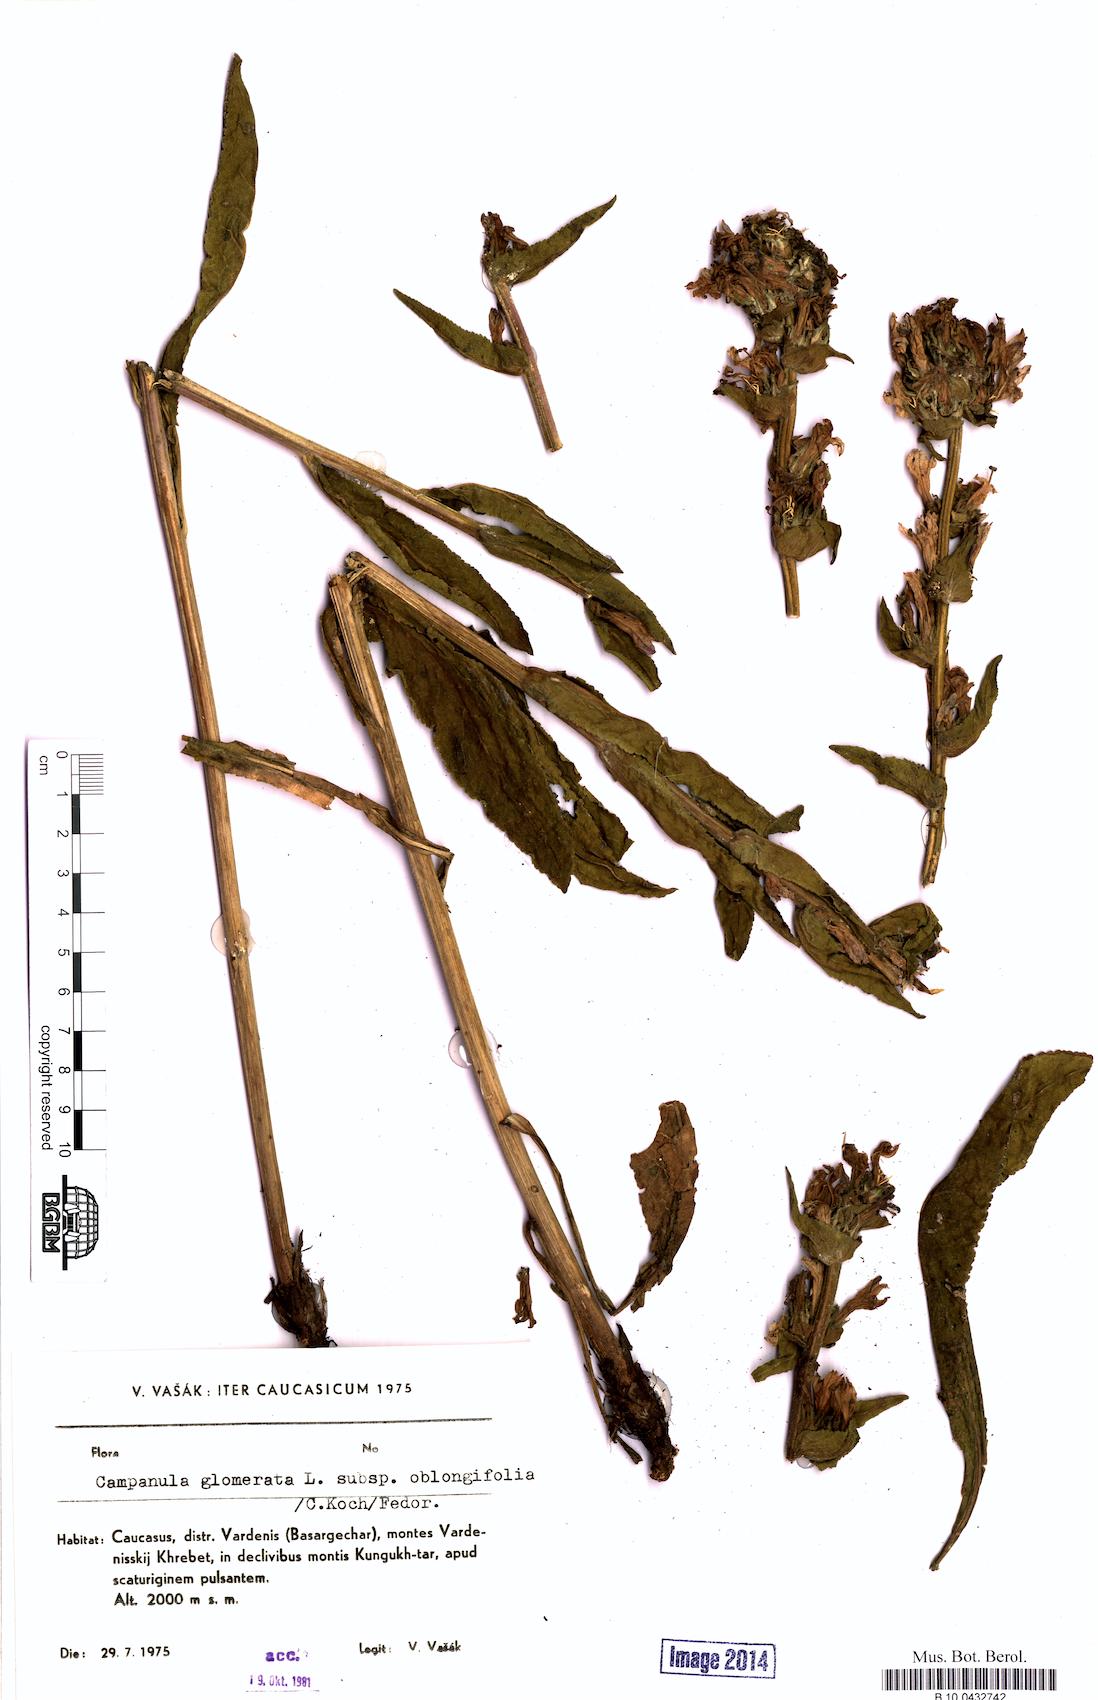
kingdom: Plantae
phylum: Tracheophyta
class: Magnoliopsida
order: Asterales
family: Campanulaceae
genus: Campanula
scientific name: Campanula glomerata
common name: Clustered bellflower
